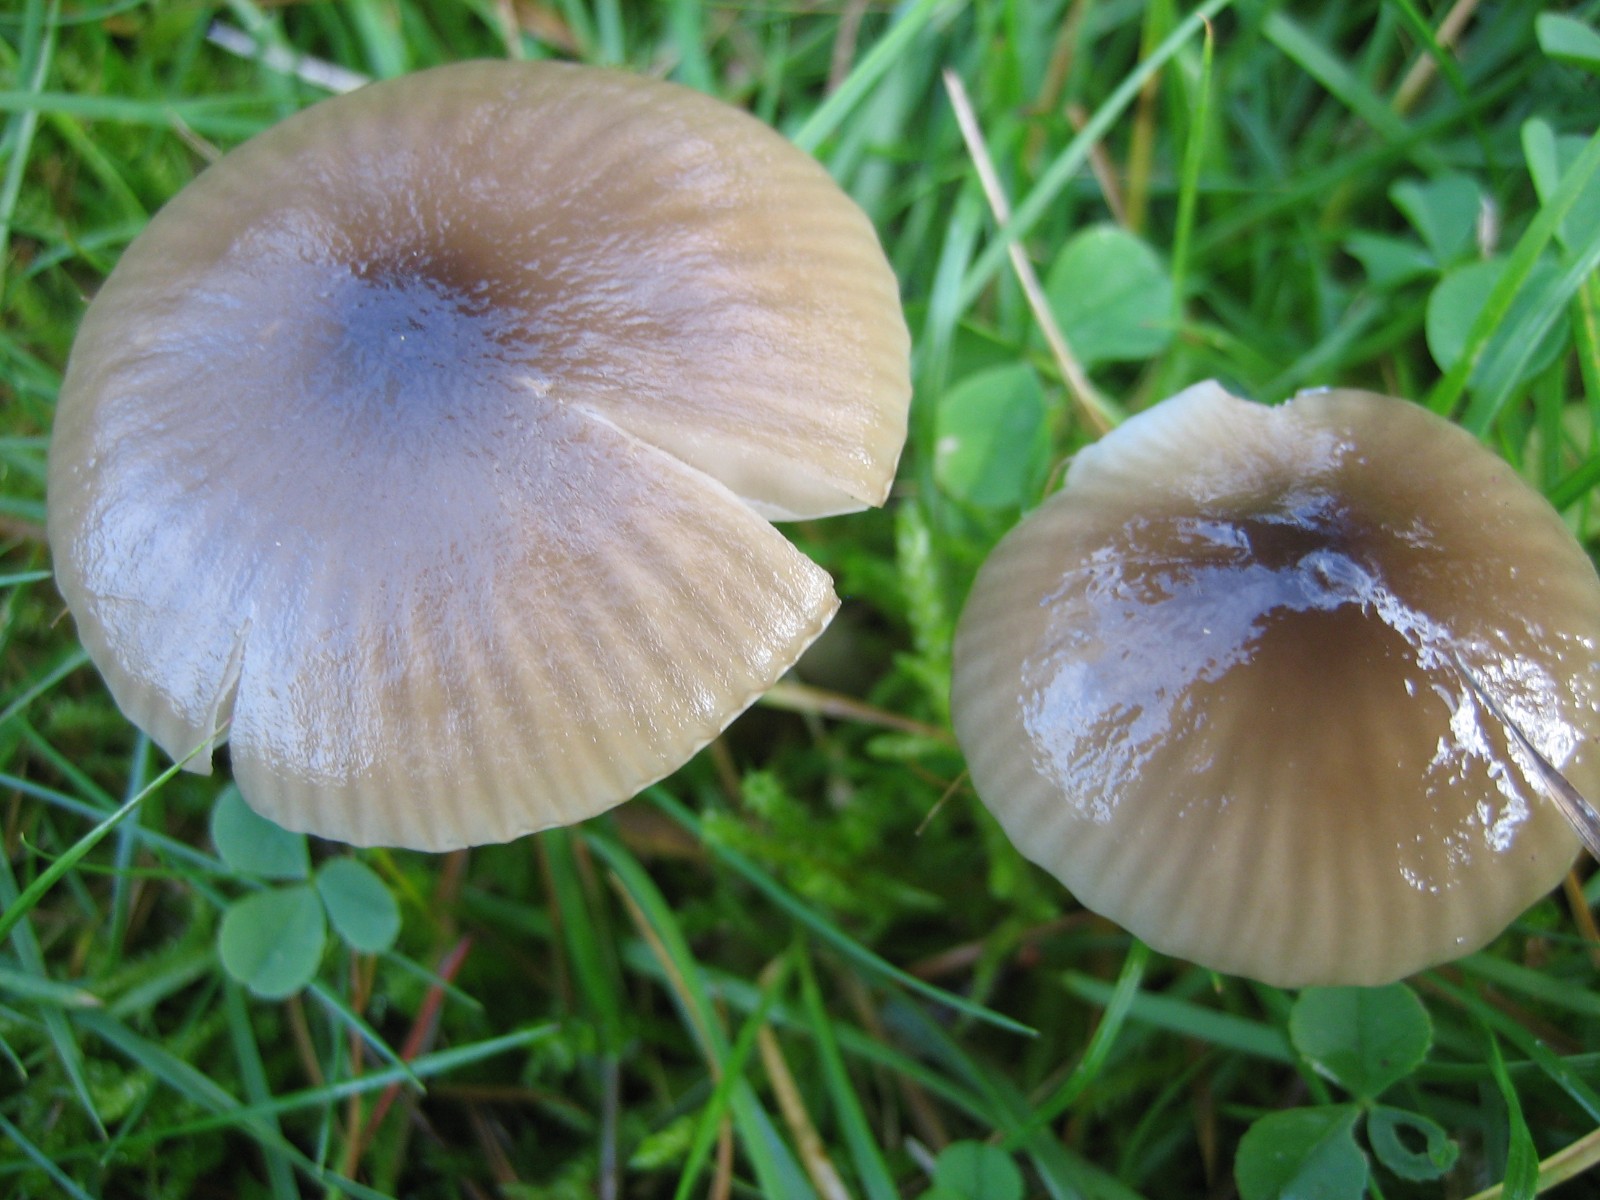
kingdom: Fungi
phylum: Basidiomycota
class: Agaricomycetes
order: Agaricales
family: Hygrophoraceae
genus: Gliophorus
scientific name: Gliophorus irrigatus
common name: slimet vokshat
